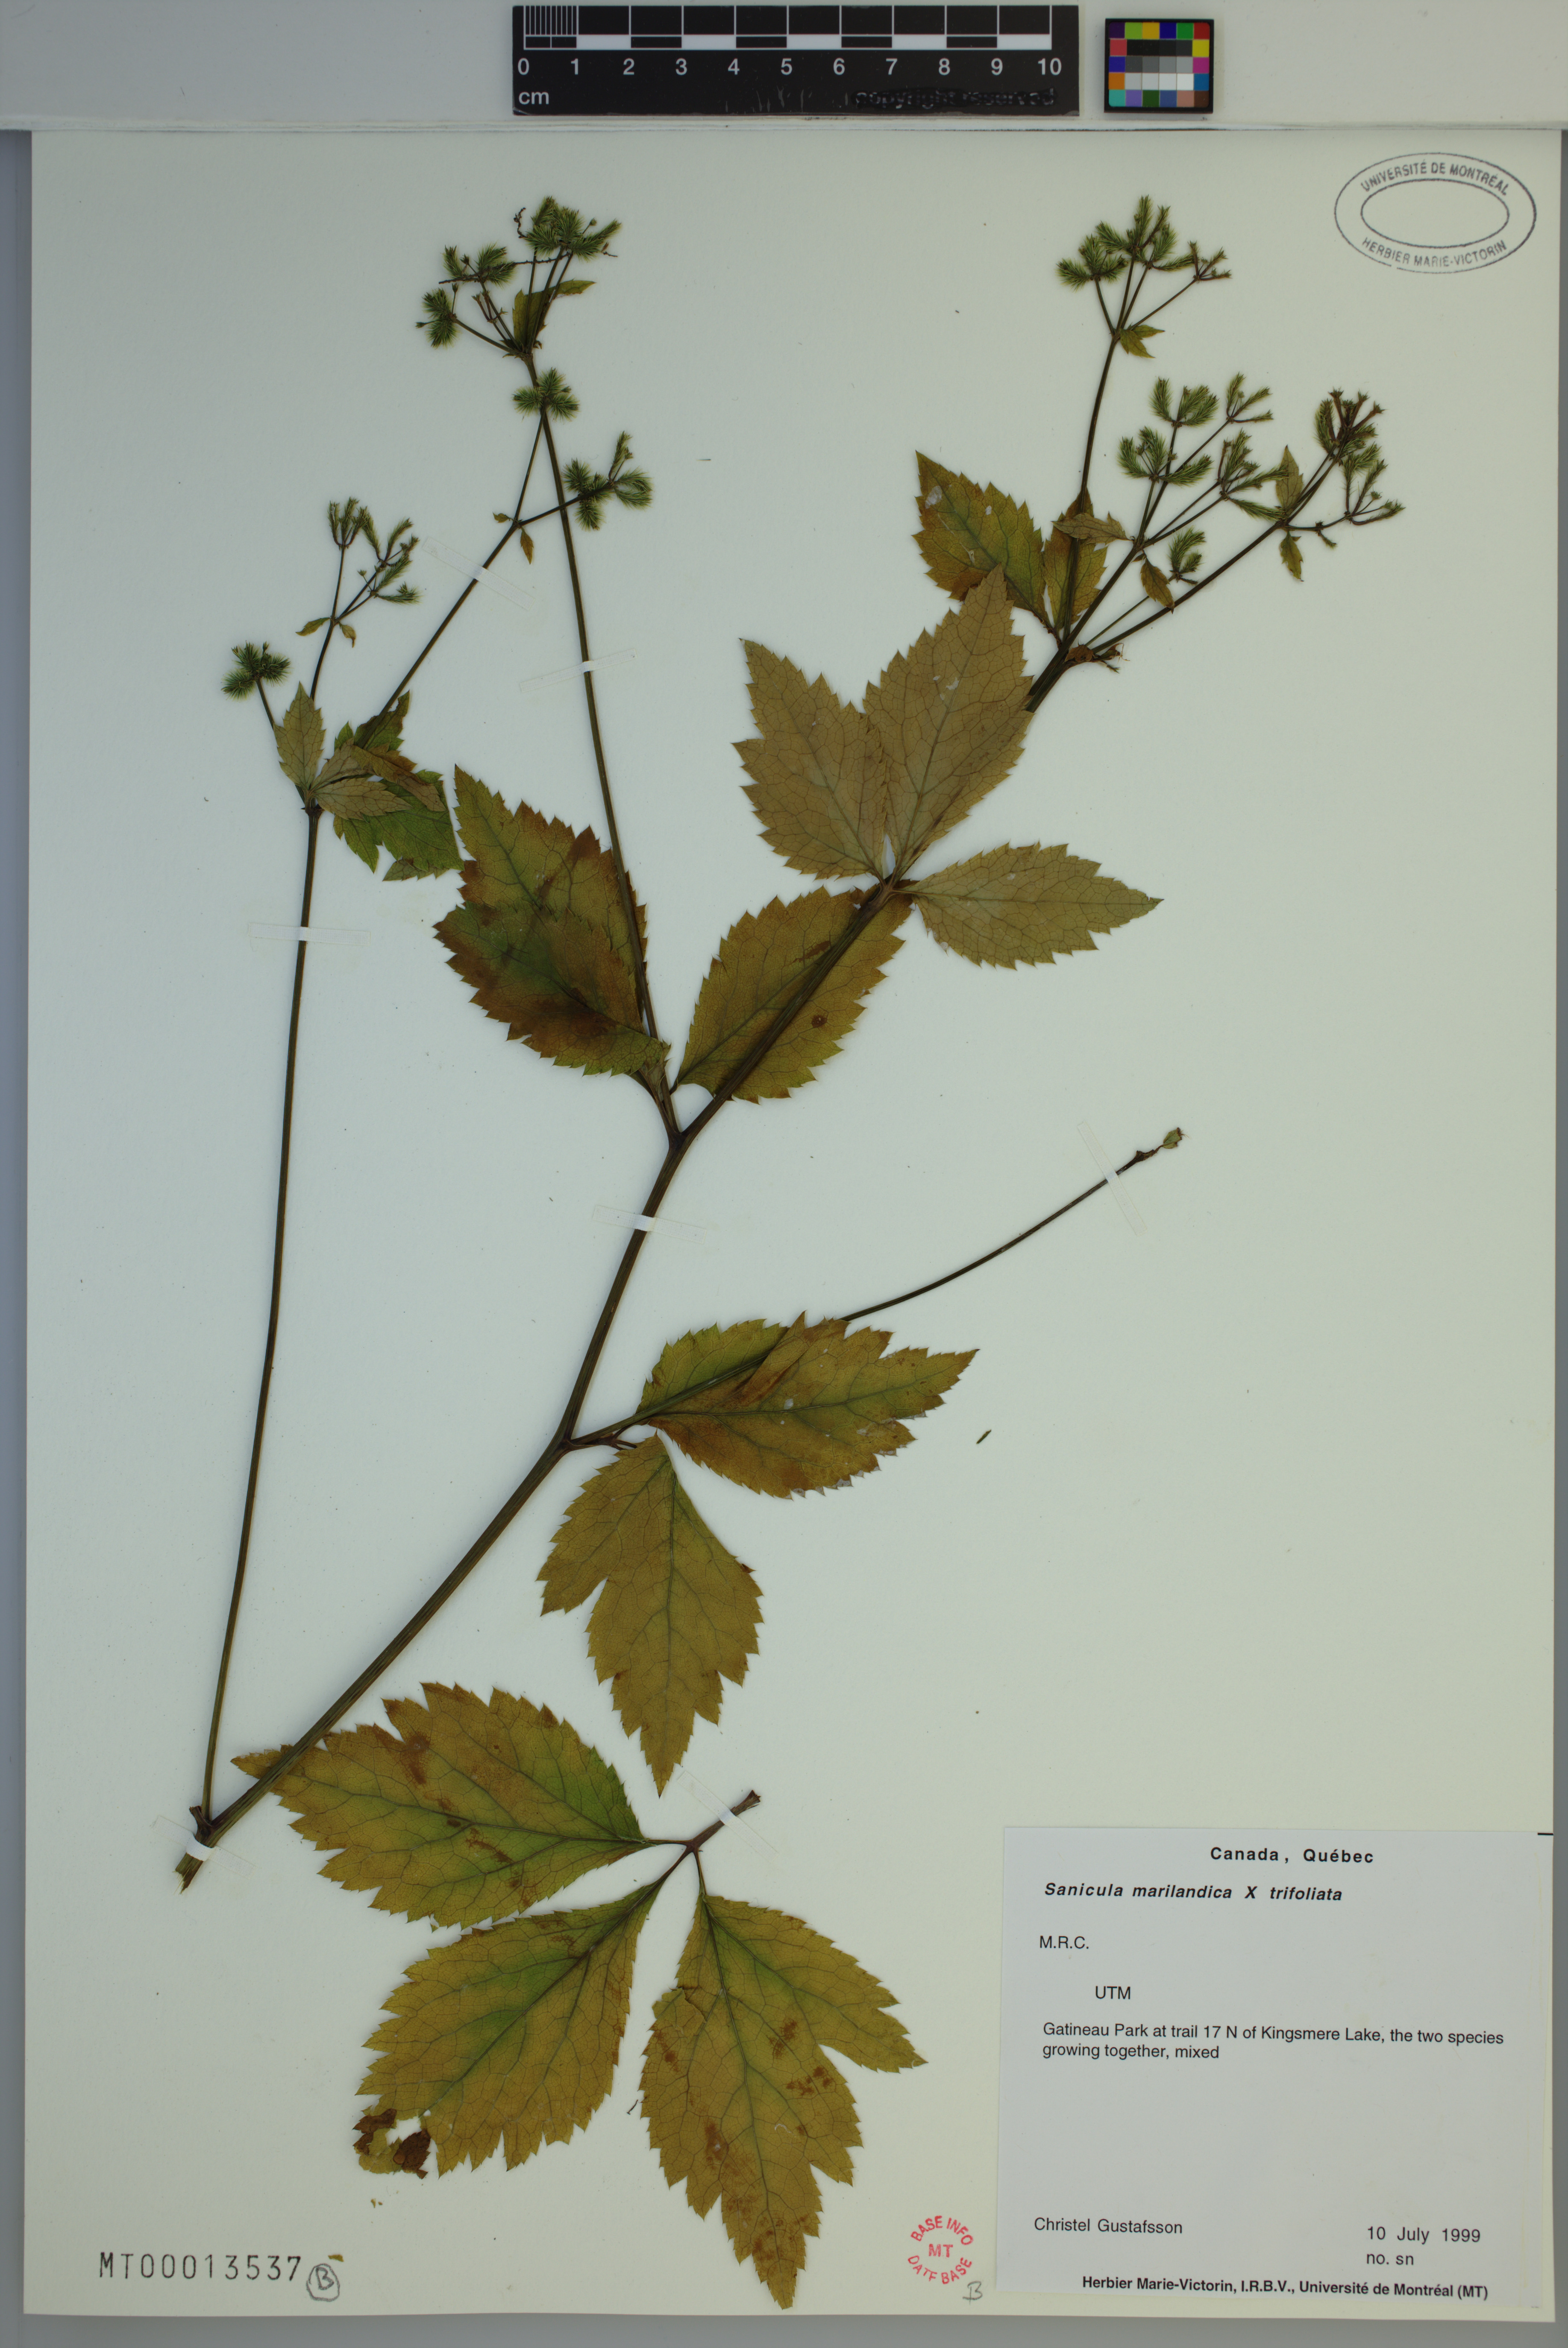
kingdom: Plantae
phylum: Tracheophyta
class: Magnoliopsida
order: Apiales
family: Apiaceae
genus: Sanicula
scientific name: Sanicula marilandica
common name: Black snakeroot
